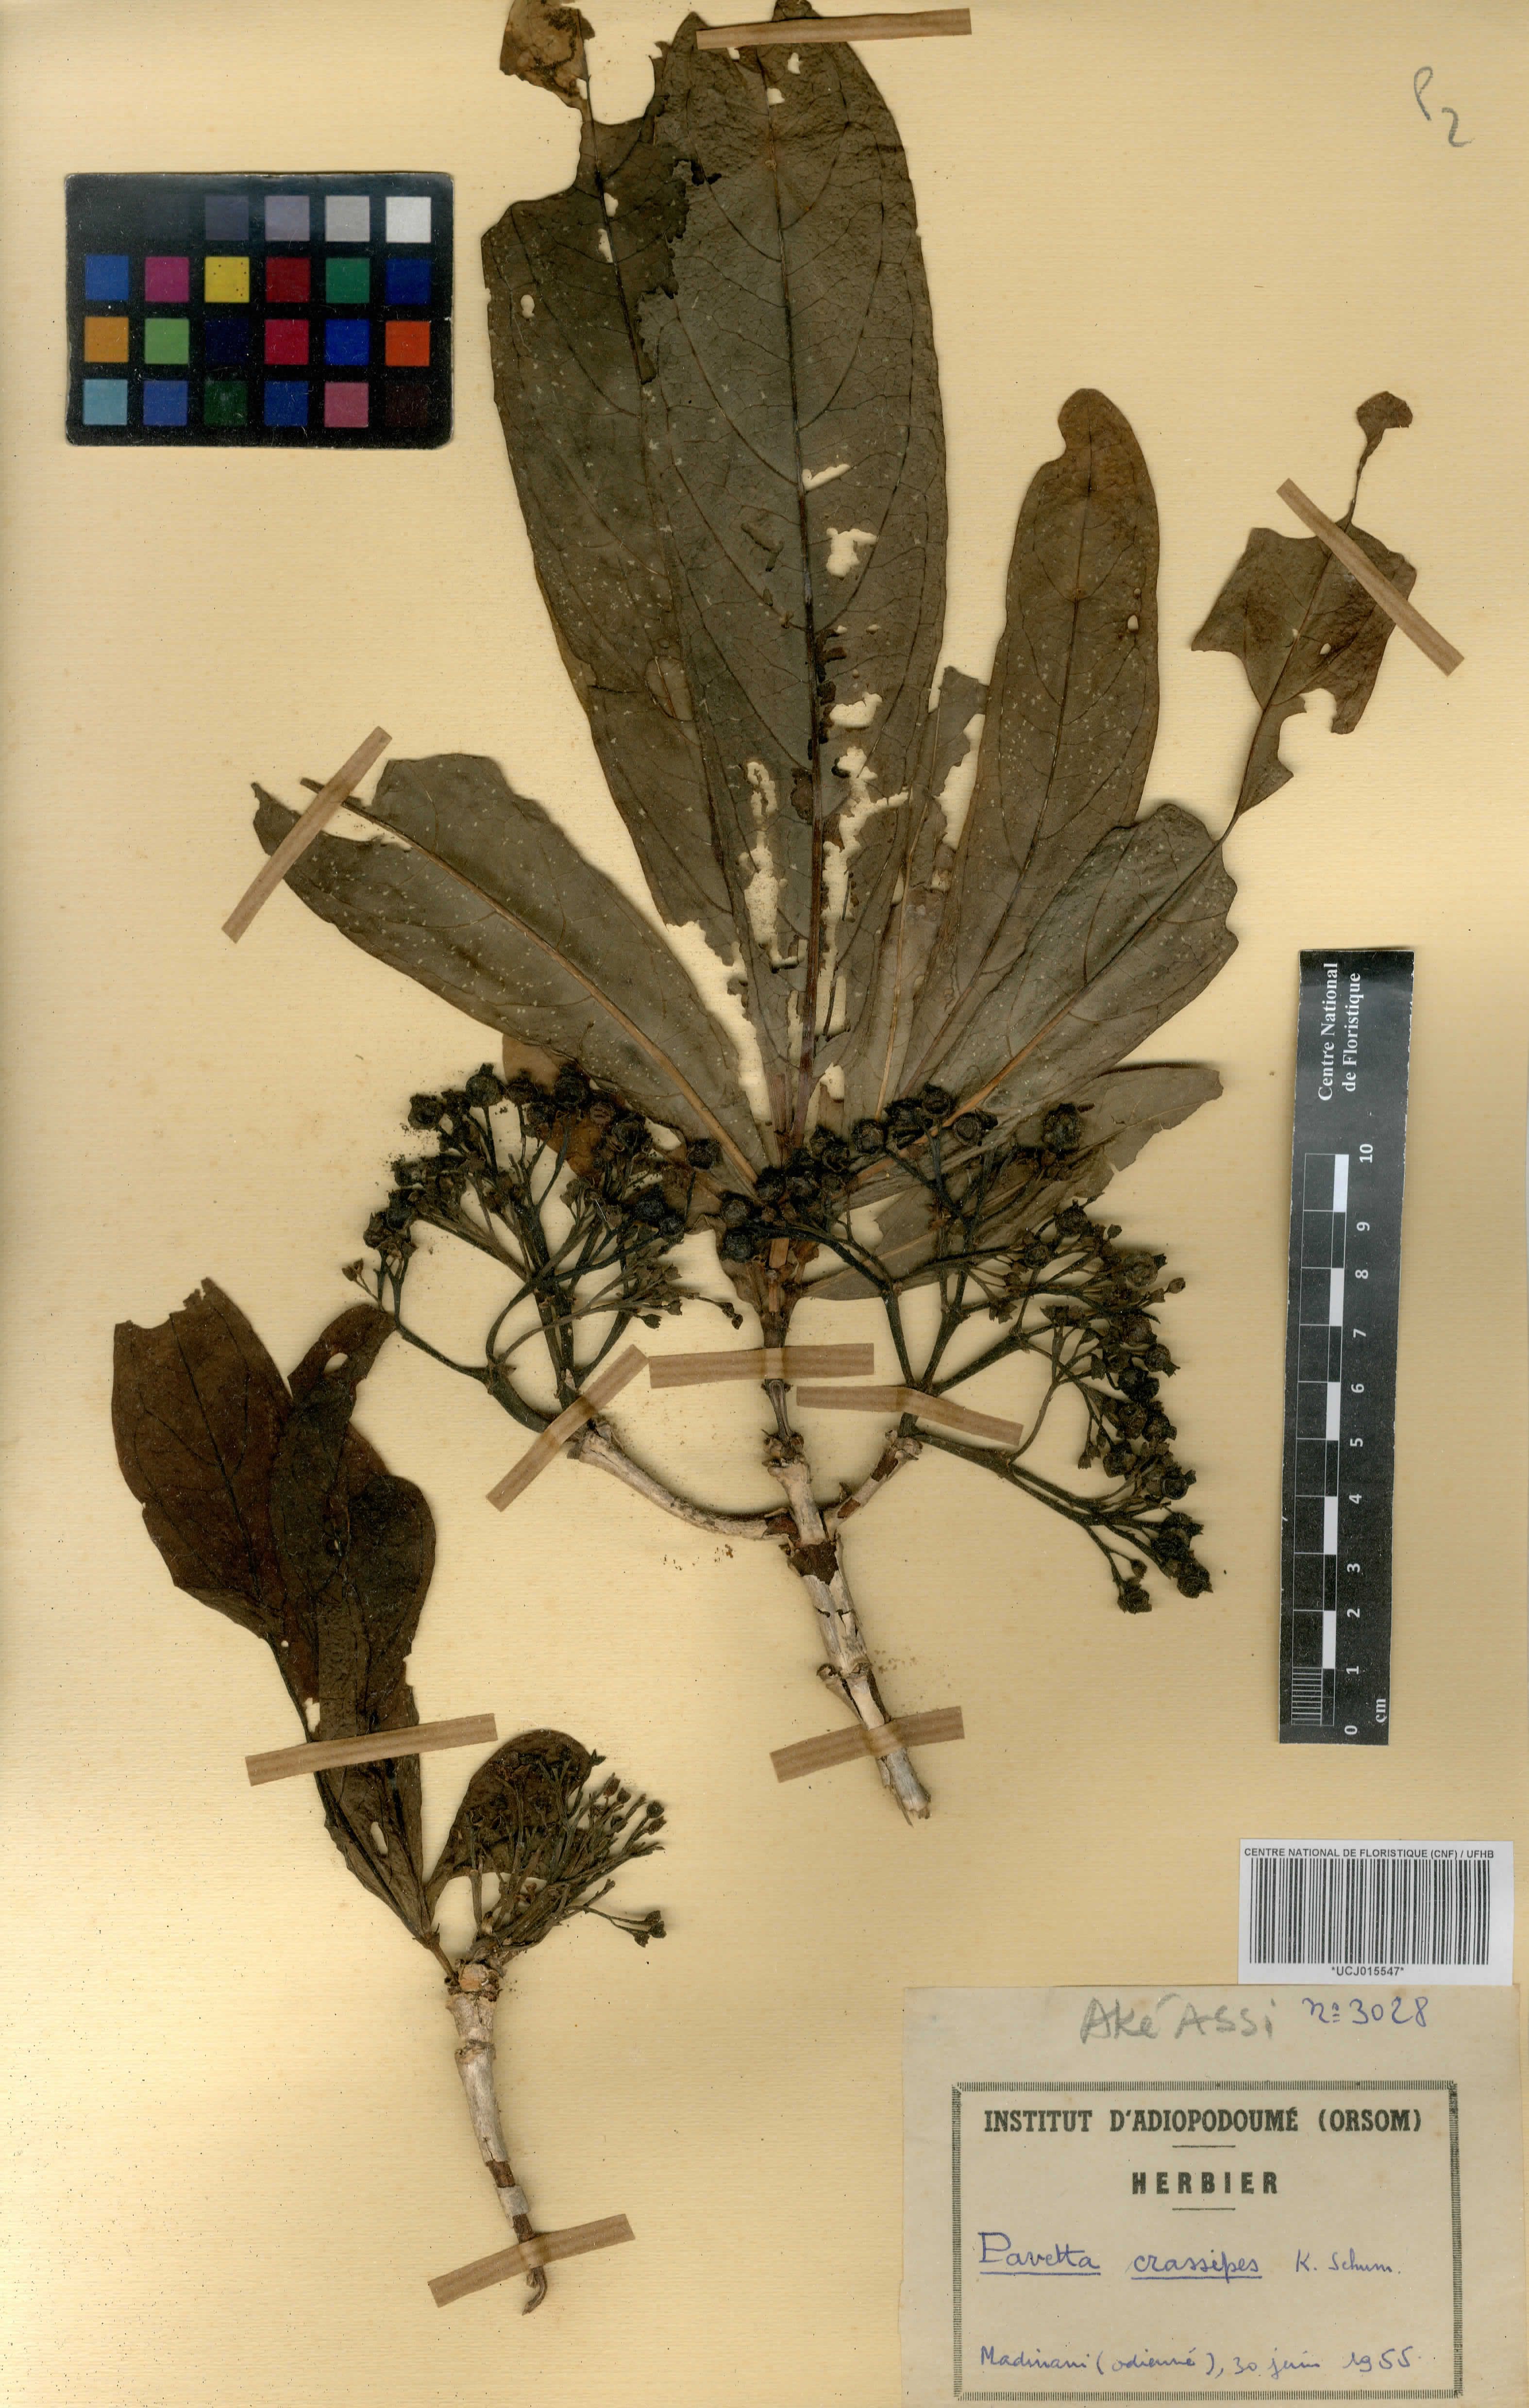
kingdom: Plantae
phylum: Tracheophyta
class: Magnoliopsida
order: Gentianales
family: Rubiaceae
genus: Pavetta
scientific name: Pavetta crassipes
